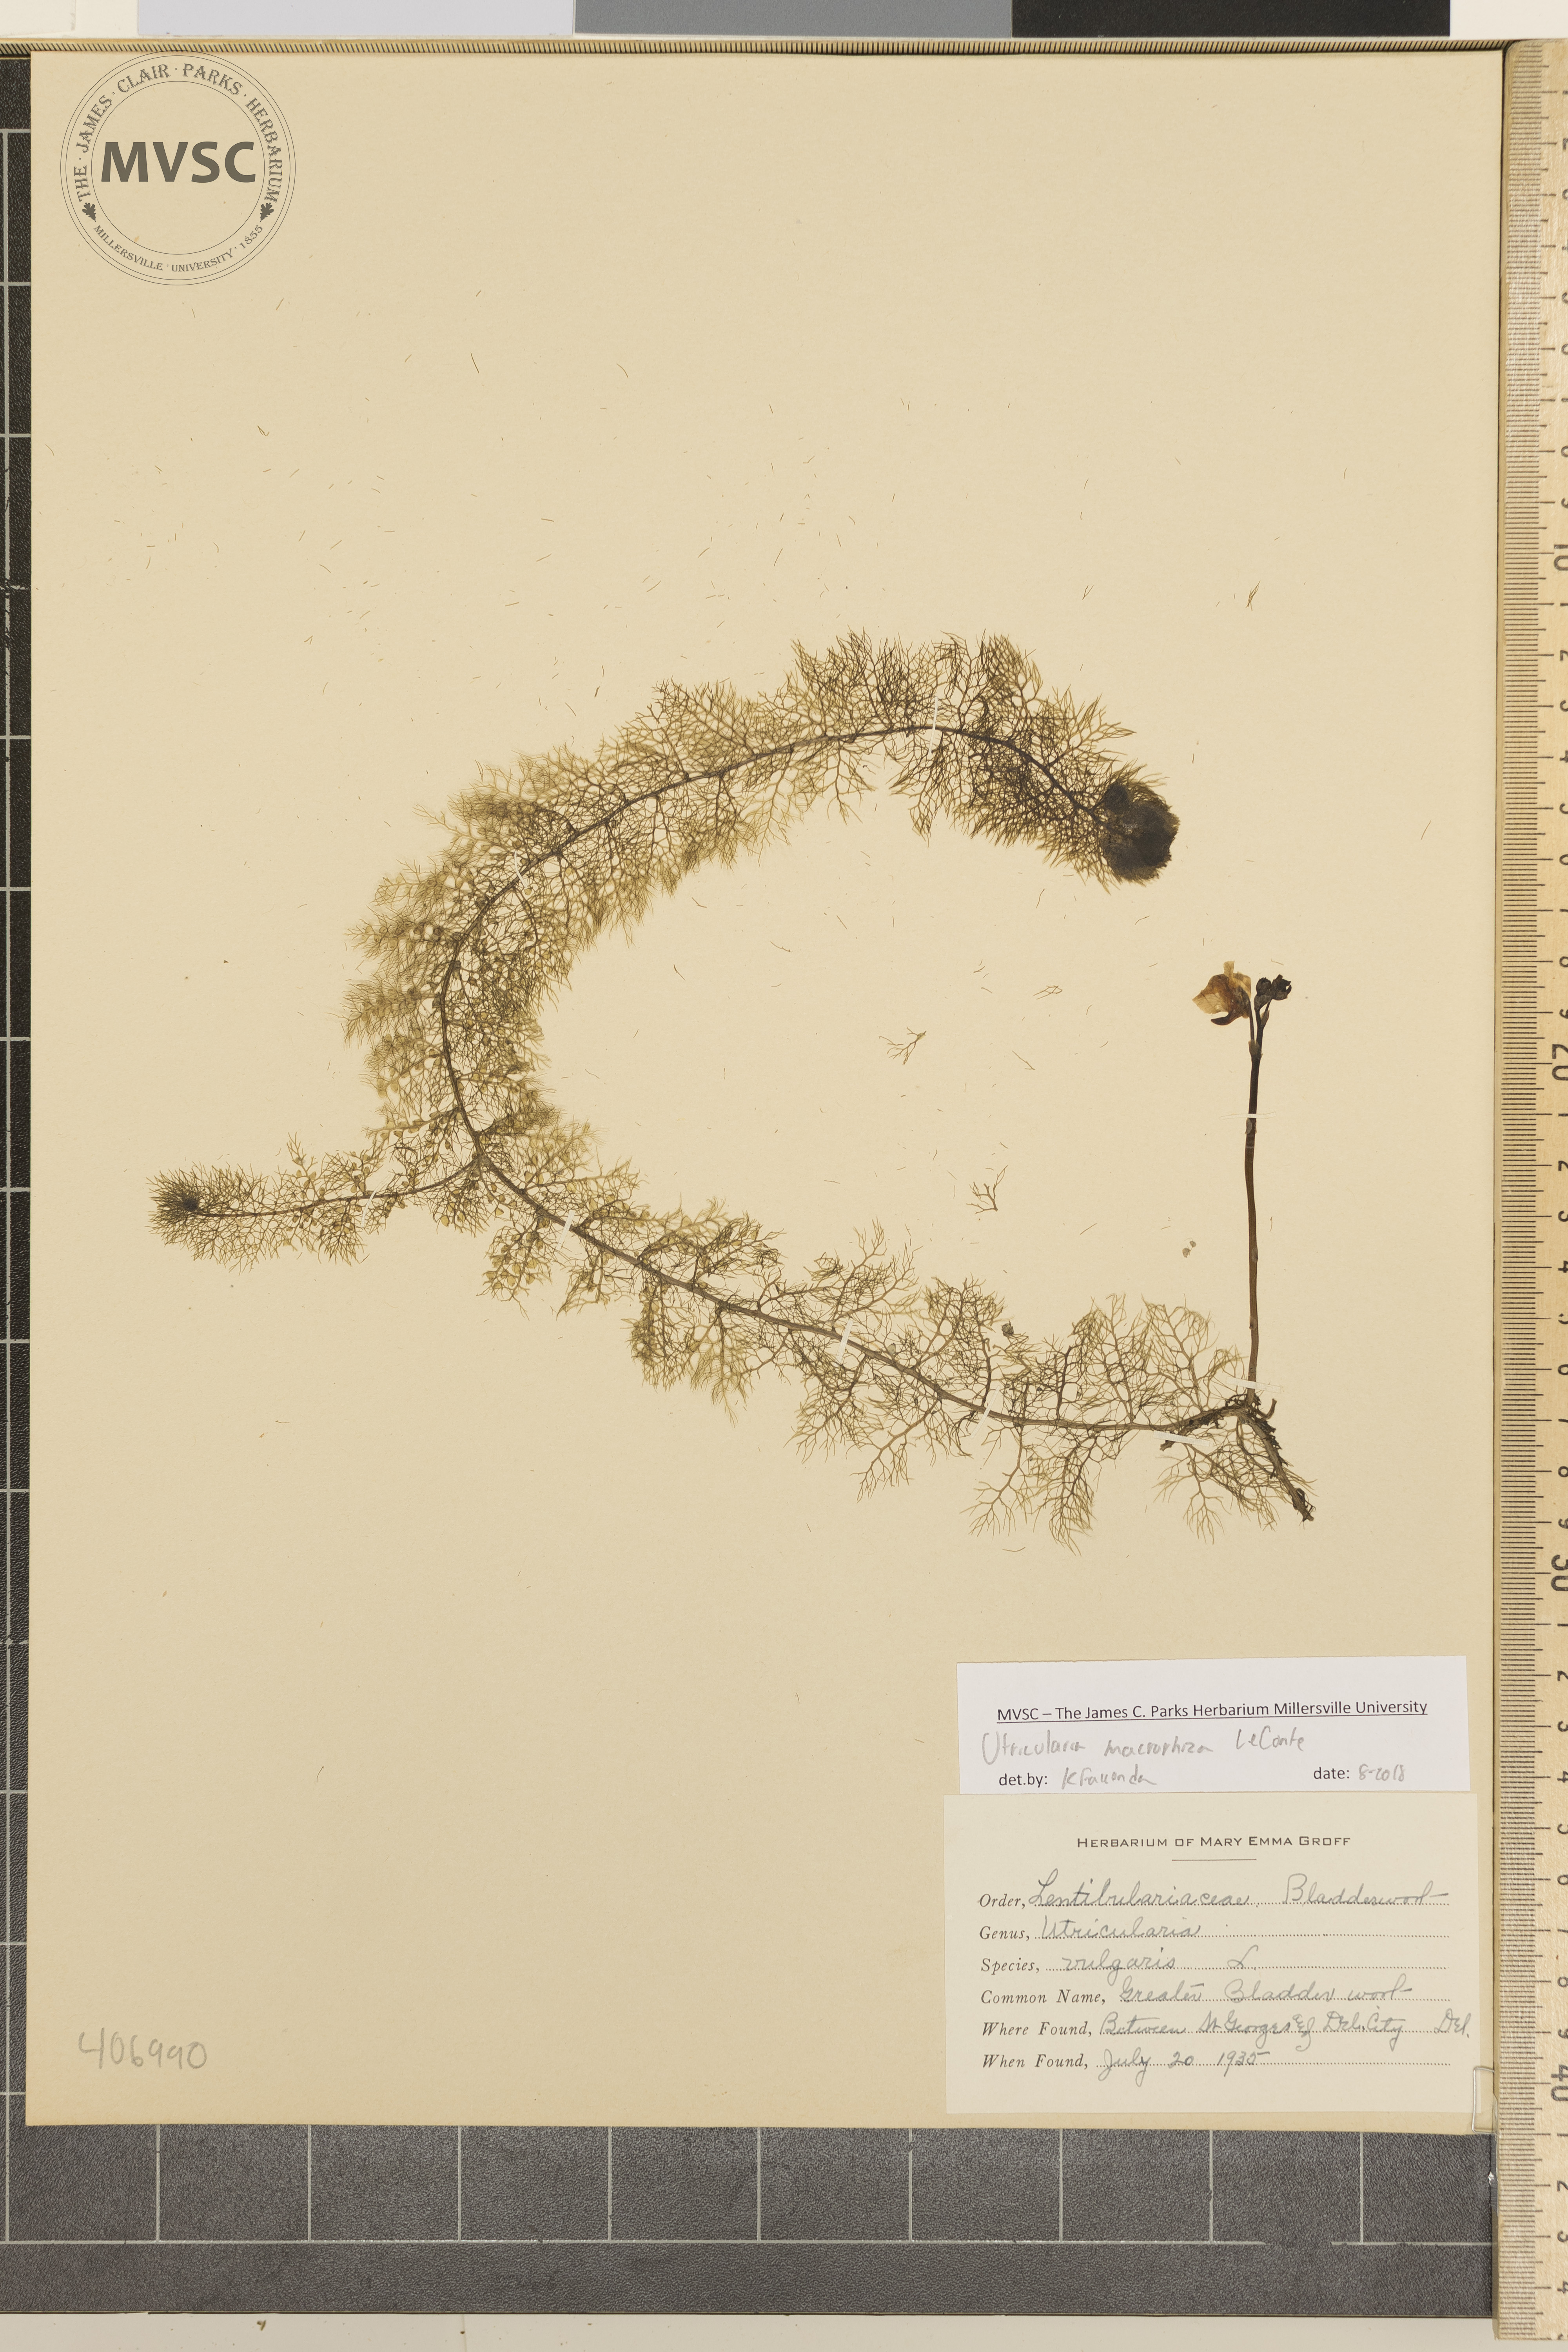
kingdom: Plantae
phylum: Tracheophyta
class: Magnoliopsida
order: Lamiales
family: Lentibulariaceae
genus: Utricularia
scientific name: Utricularia macrorhiza
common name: Greater Bladderwort
